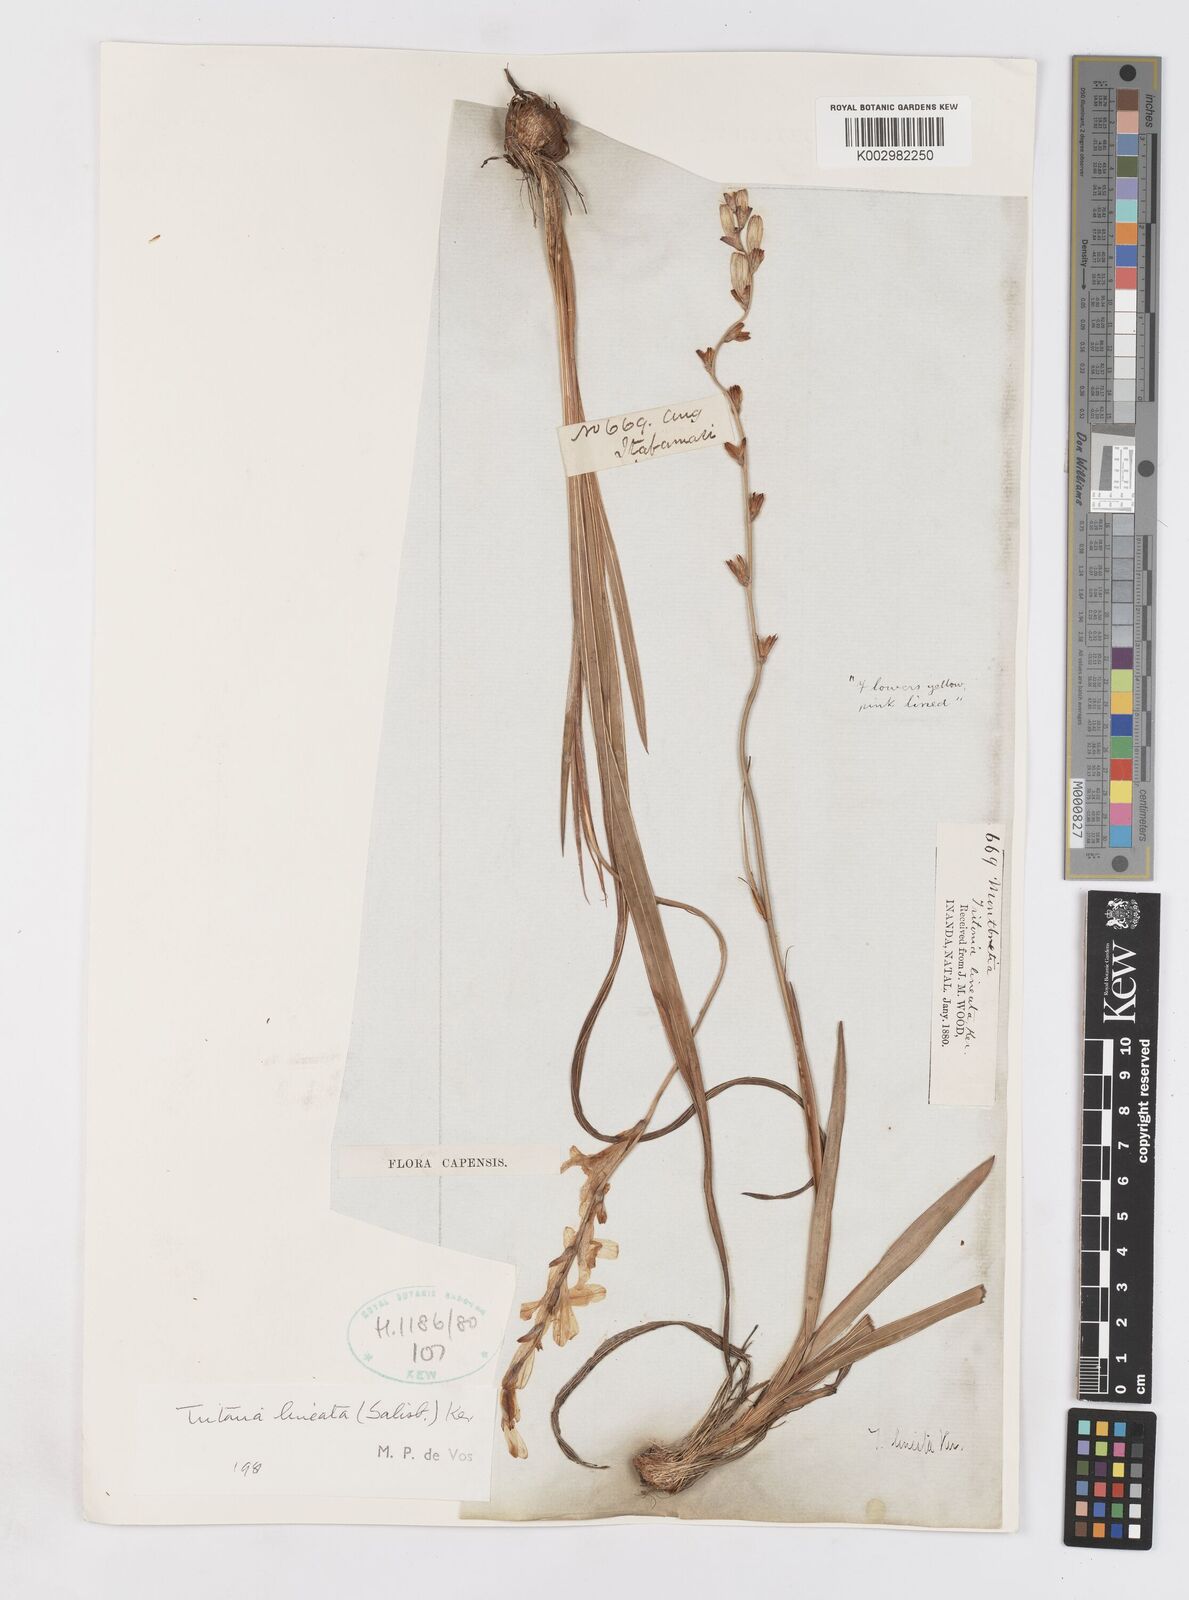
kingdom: Plantae
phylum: Tracheophyta
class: Liliopsida
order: Asparagales
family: Iridaceae
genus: Tritonia
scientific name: Tritonia gladiolaris
